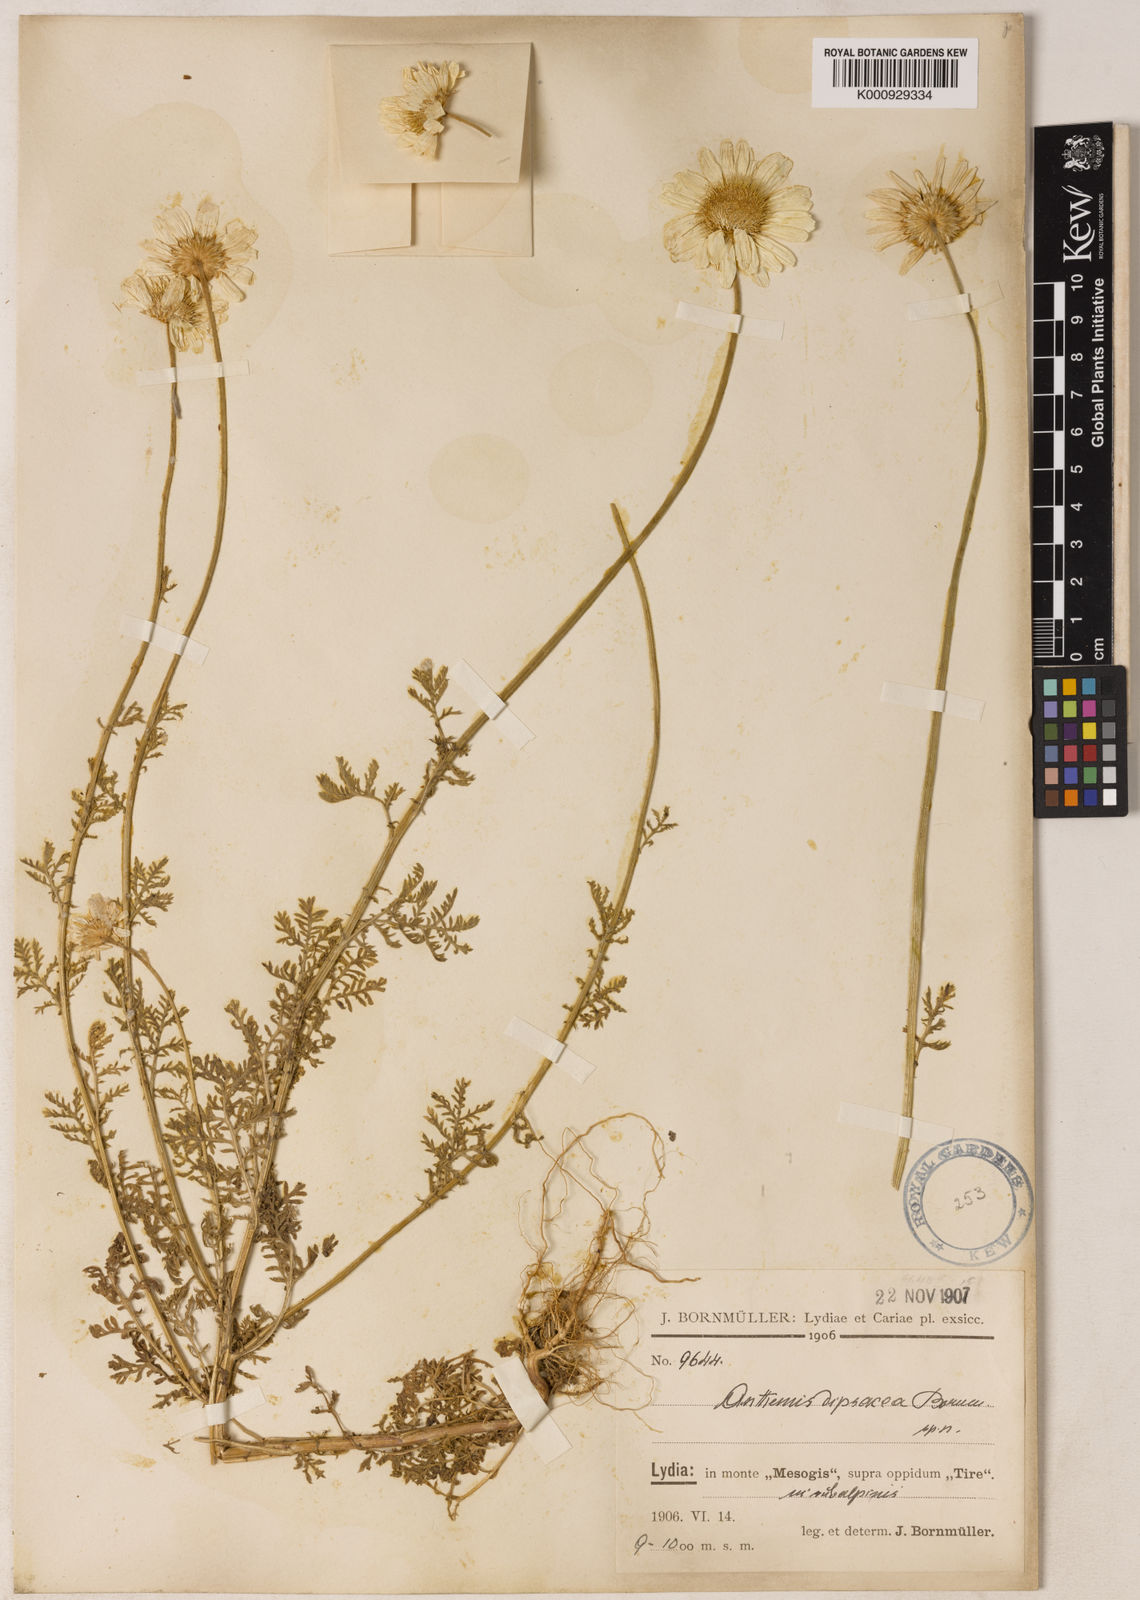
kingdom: Plantae
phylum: Tracheophyta
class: Magnoliopsida
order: Asterales
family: Asteraceae
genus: Cota
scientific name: Cota dipsacea
